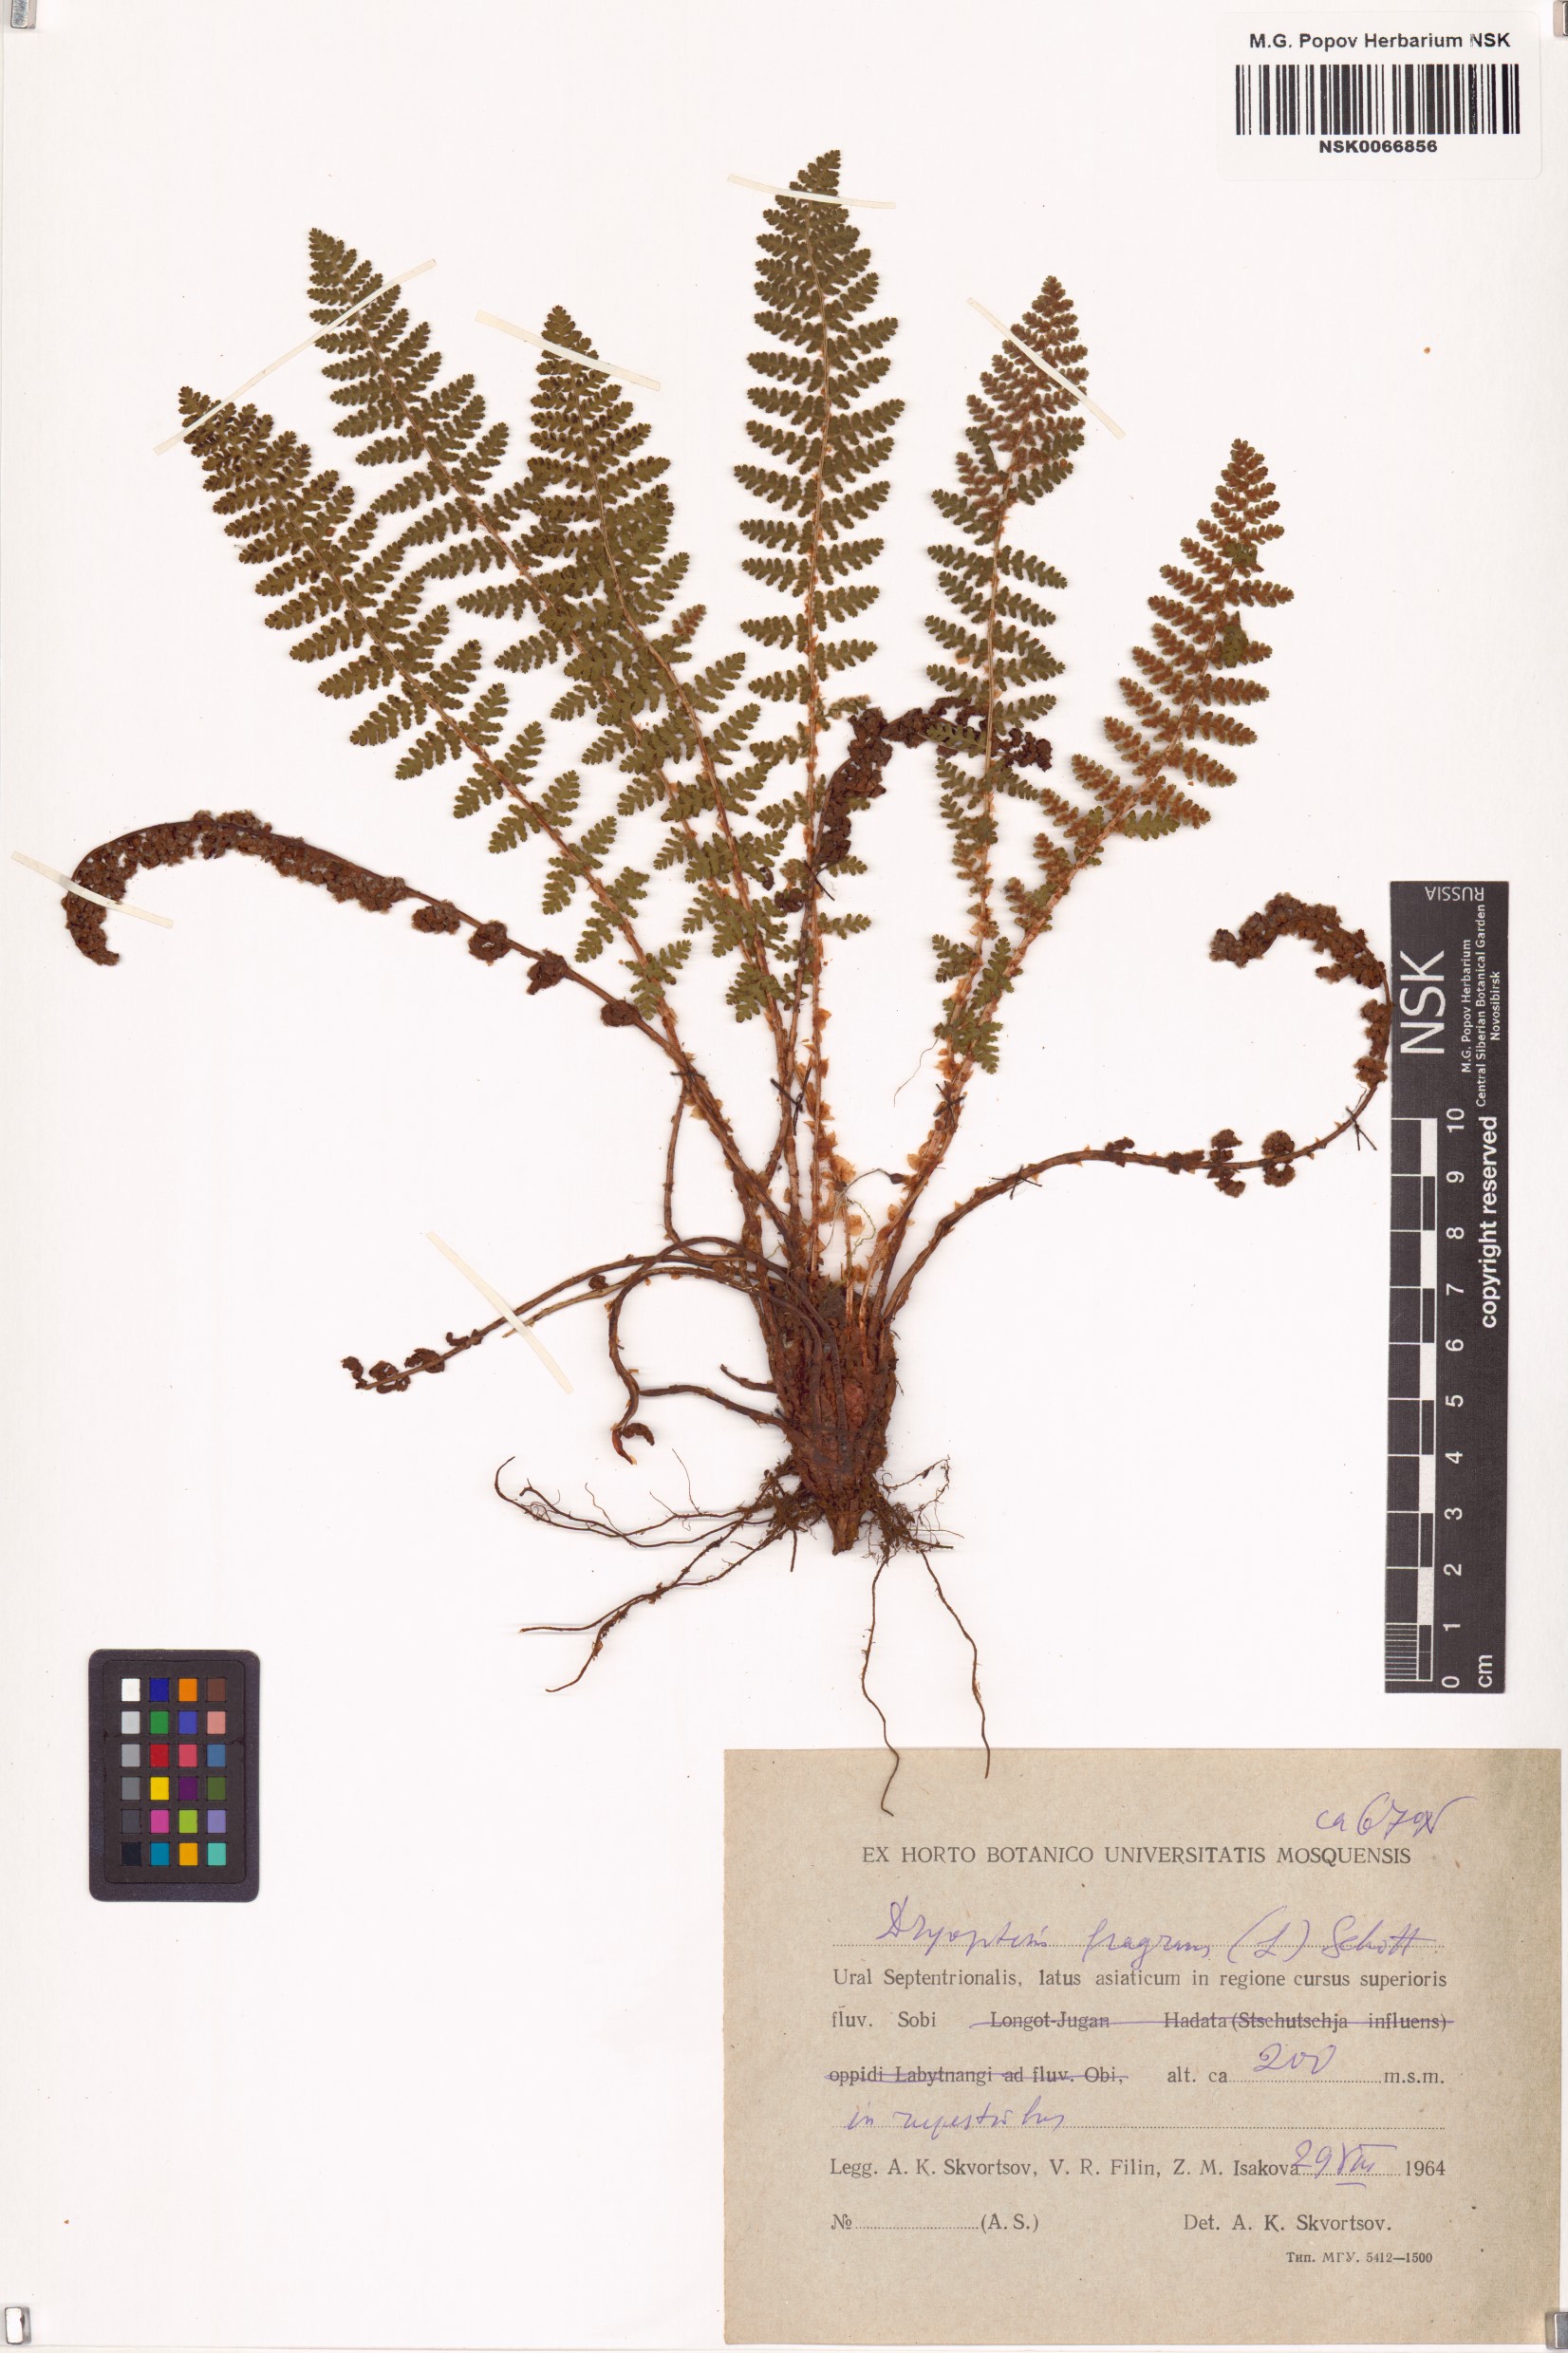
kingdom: Plantae
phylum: Tracheophyta
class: Polypodiopsida
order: Polypodiales
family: Dryopteridaceae
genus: Dryopteris
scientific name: Dryopteris fragrans
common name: Fragrant wood fern
